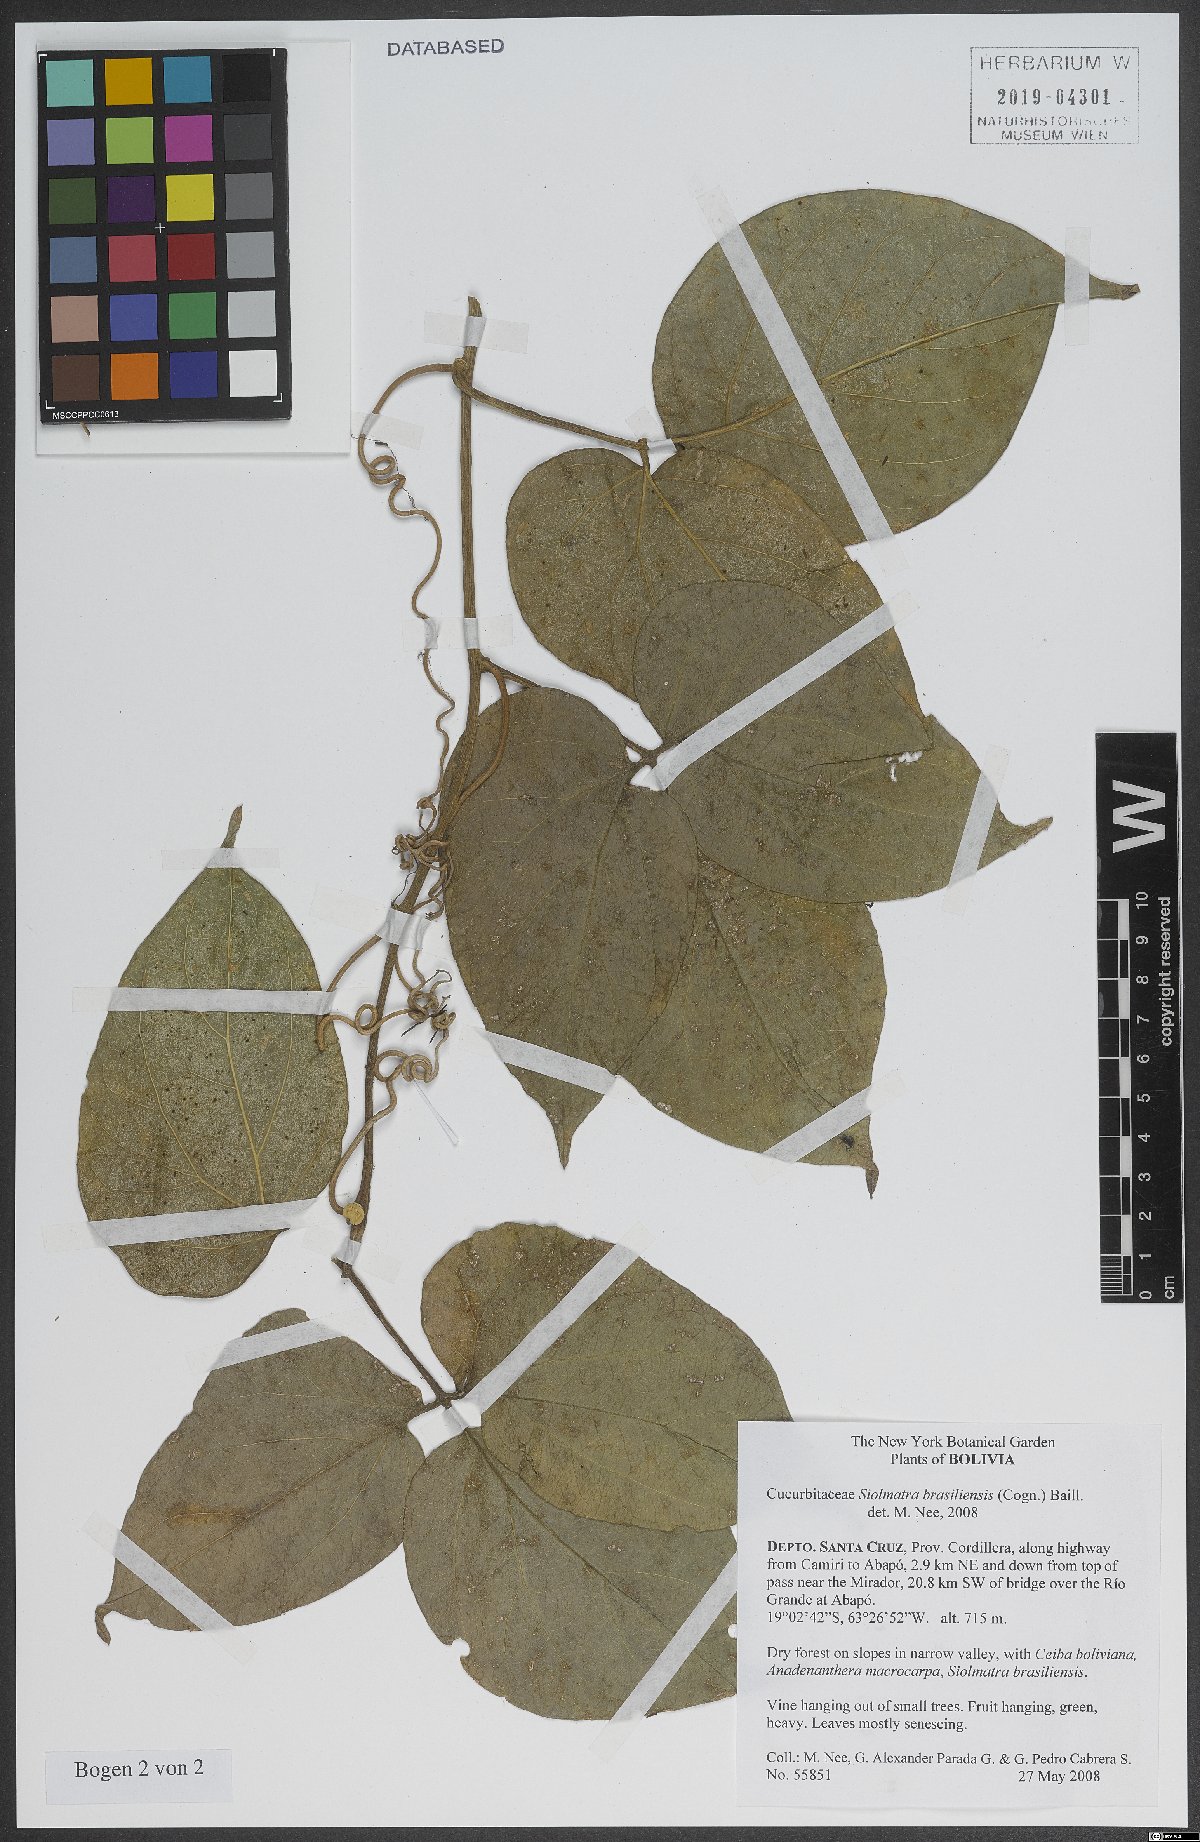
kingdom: Plantae
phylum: Tracheophyta
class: Magnoliopsida
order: Cucurbitales
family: Cucurbitaceae
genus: Siolmatra
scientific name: Siolmatra brasiliensis
